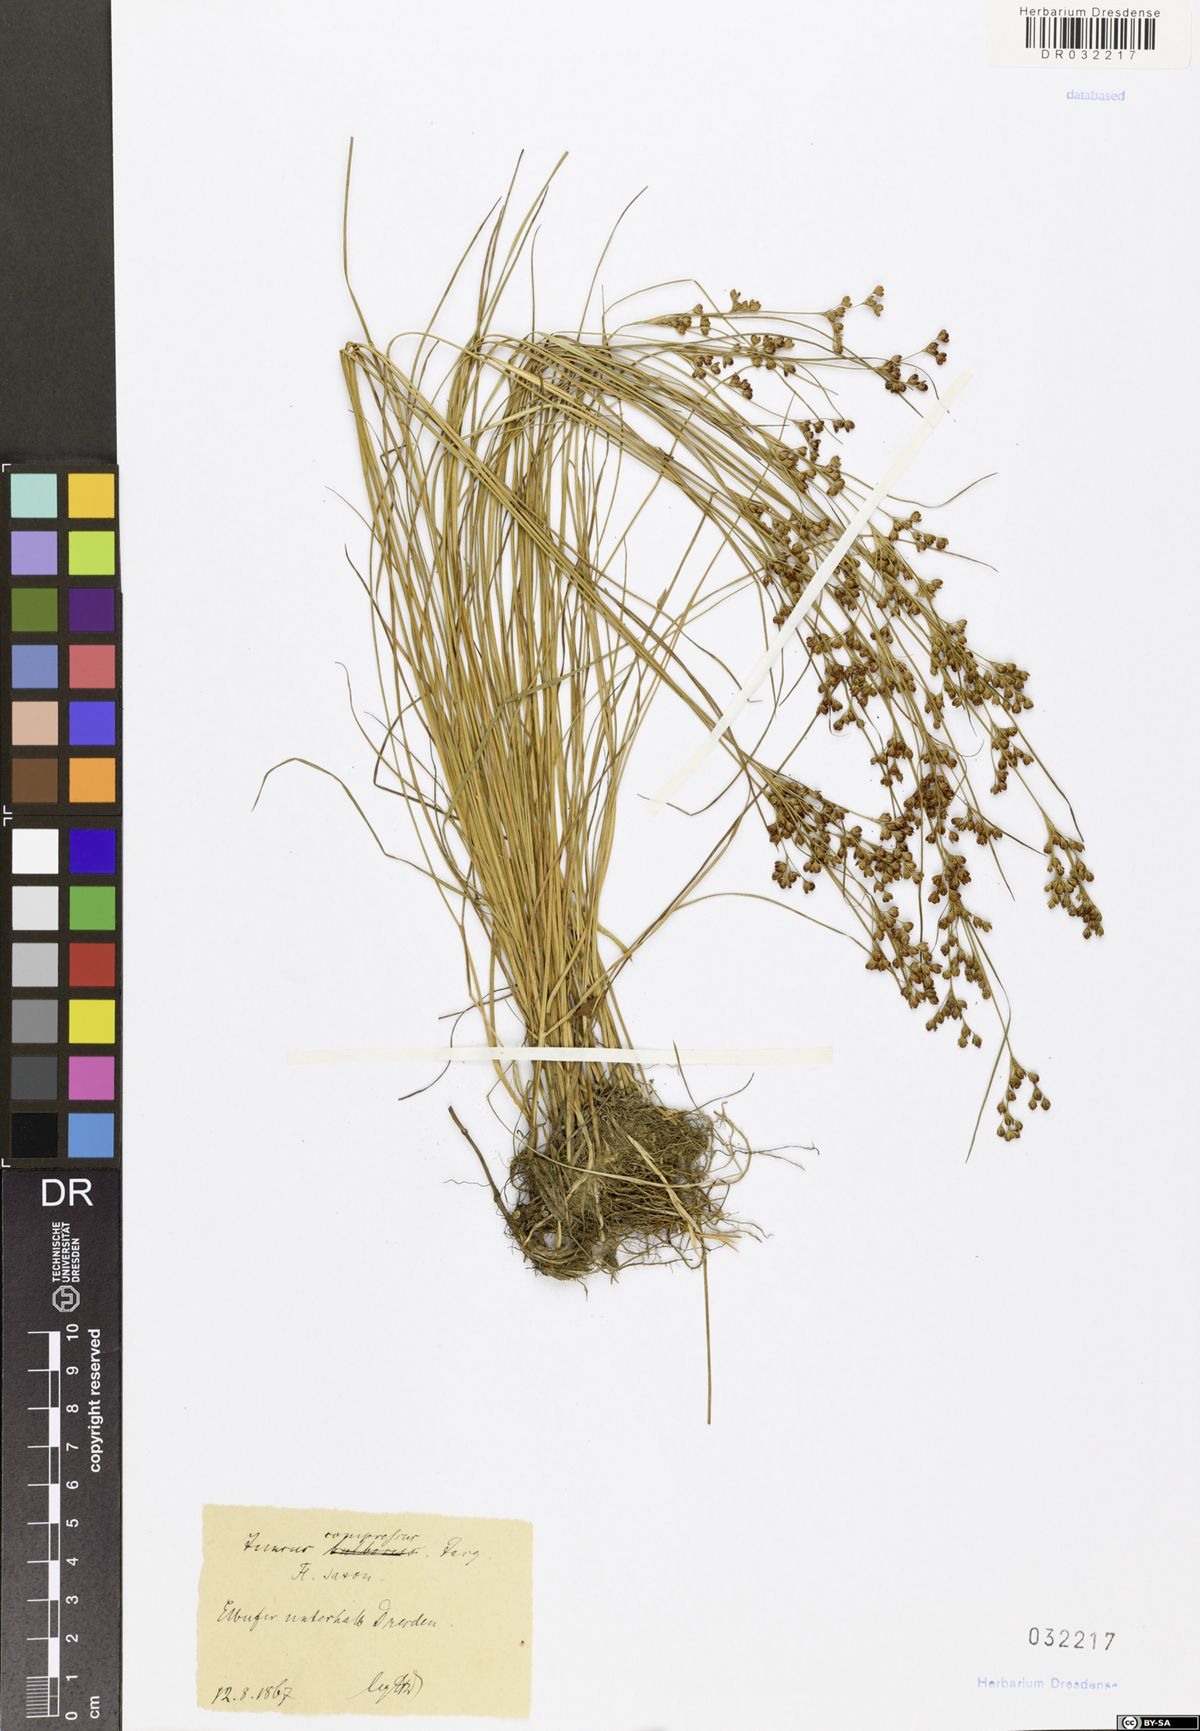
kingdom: Plantae
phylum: Tracheophyta
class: Liliopsida
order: Poales
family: Juncaceae
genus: Juncus
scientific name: Juncus compressus
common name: Round-fruited rush
